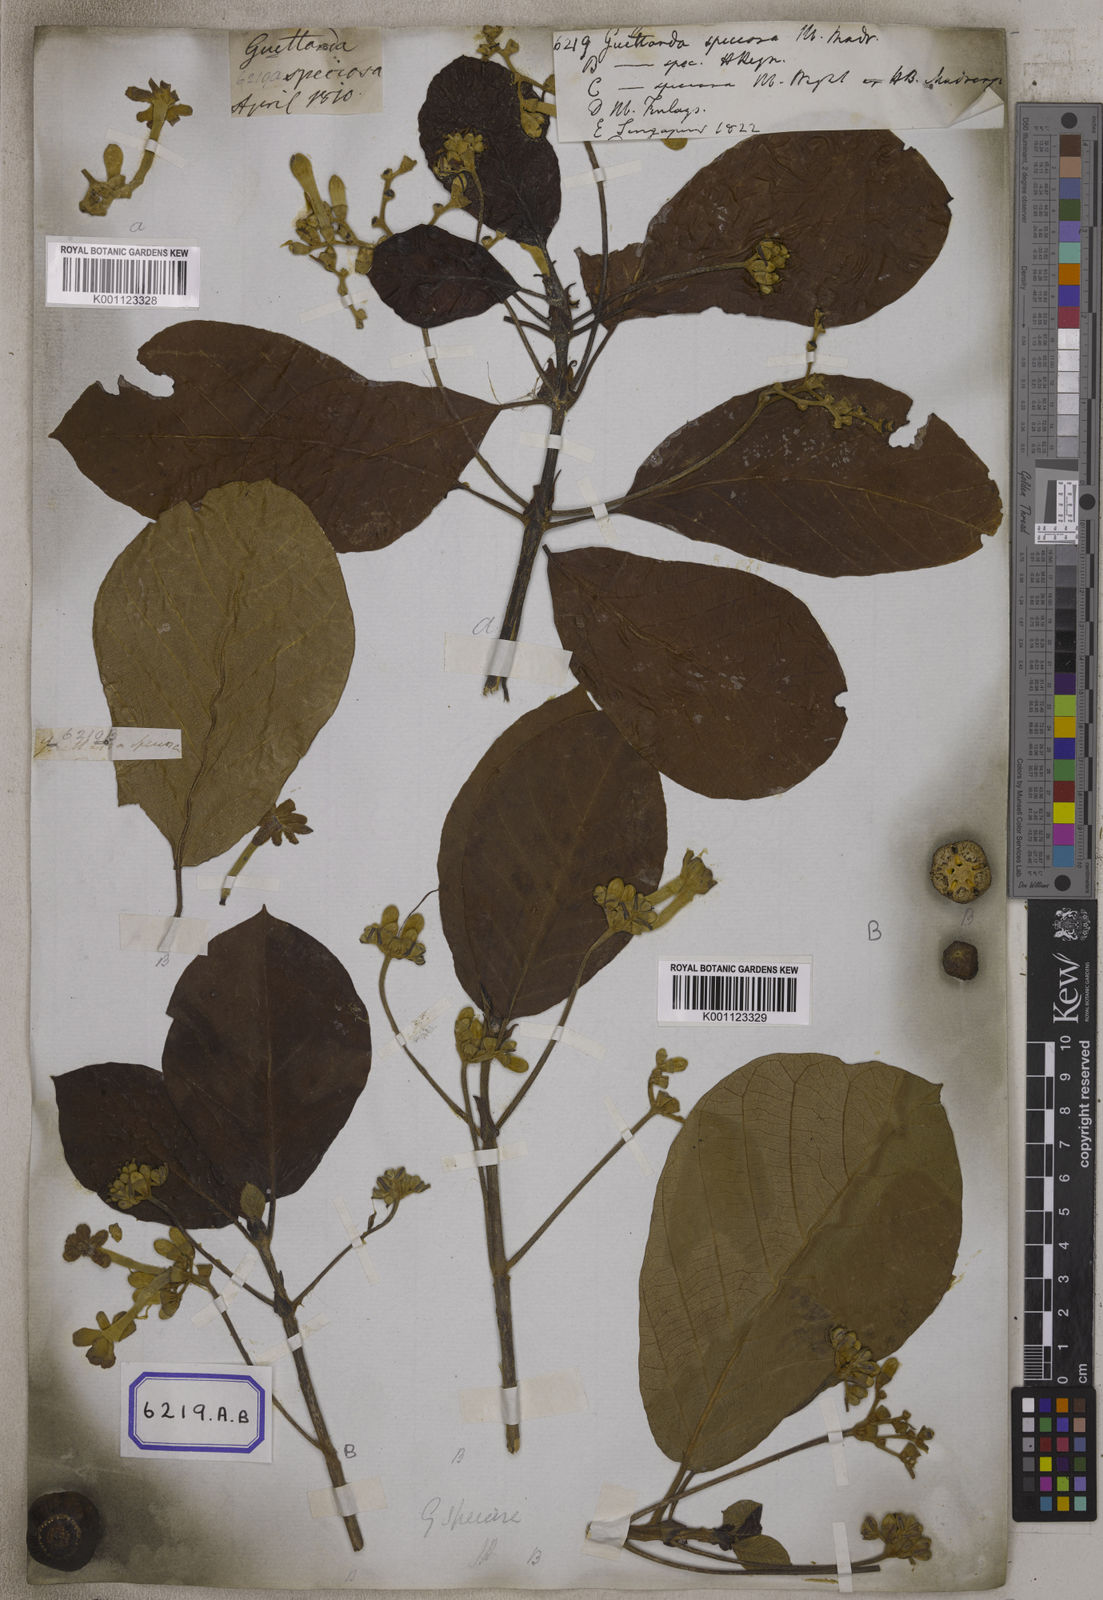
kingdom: Plantae
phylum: Tracheophyta
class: Magnoliopsida
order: Gentianales
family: Rubiaceae
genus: Guettarda
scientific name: Guettarda speciosa
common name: Sea randa
